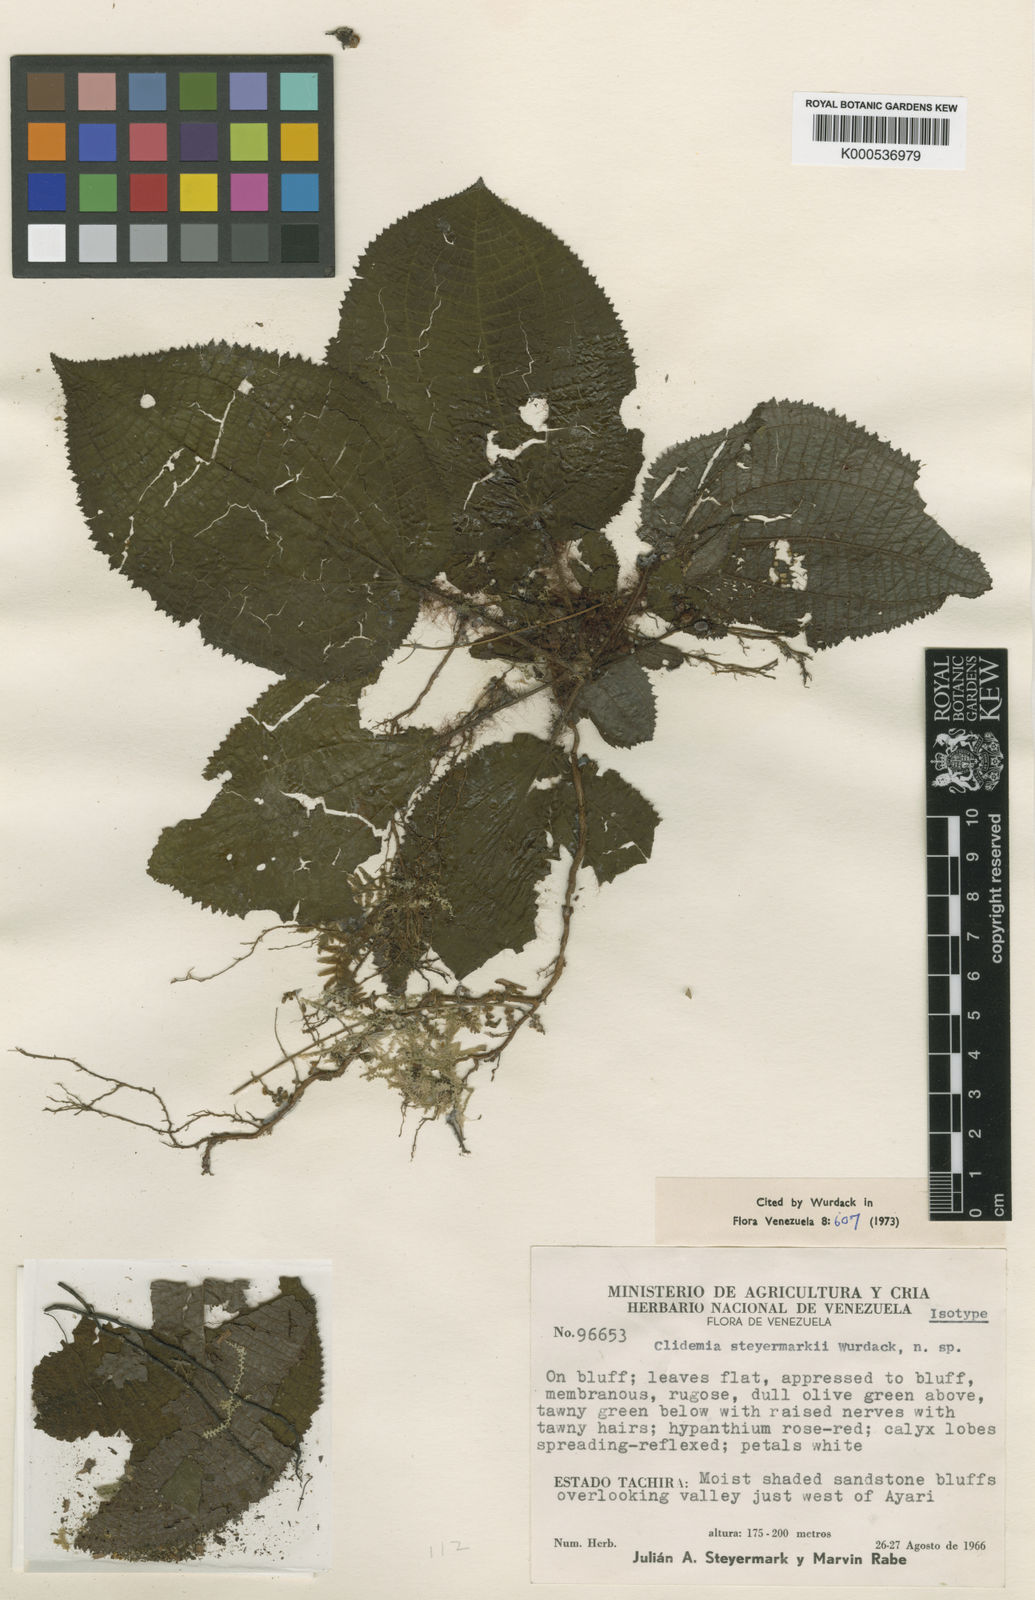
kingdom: Plantae
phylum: Tracheophyta
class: Magnoliopsida
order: Myrtales
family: Melastomataceae
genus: Miconia
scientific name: Miconia julianii
